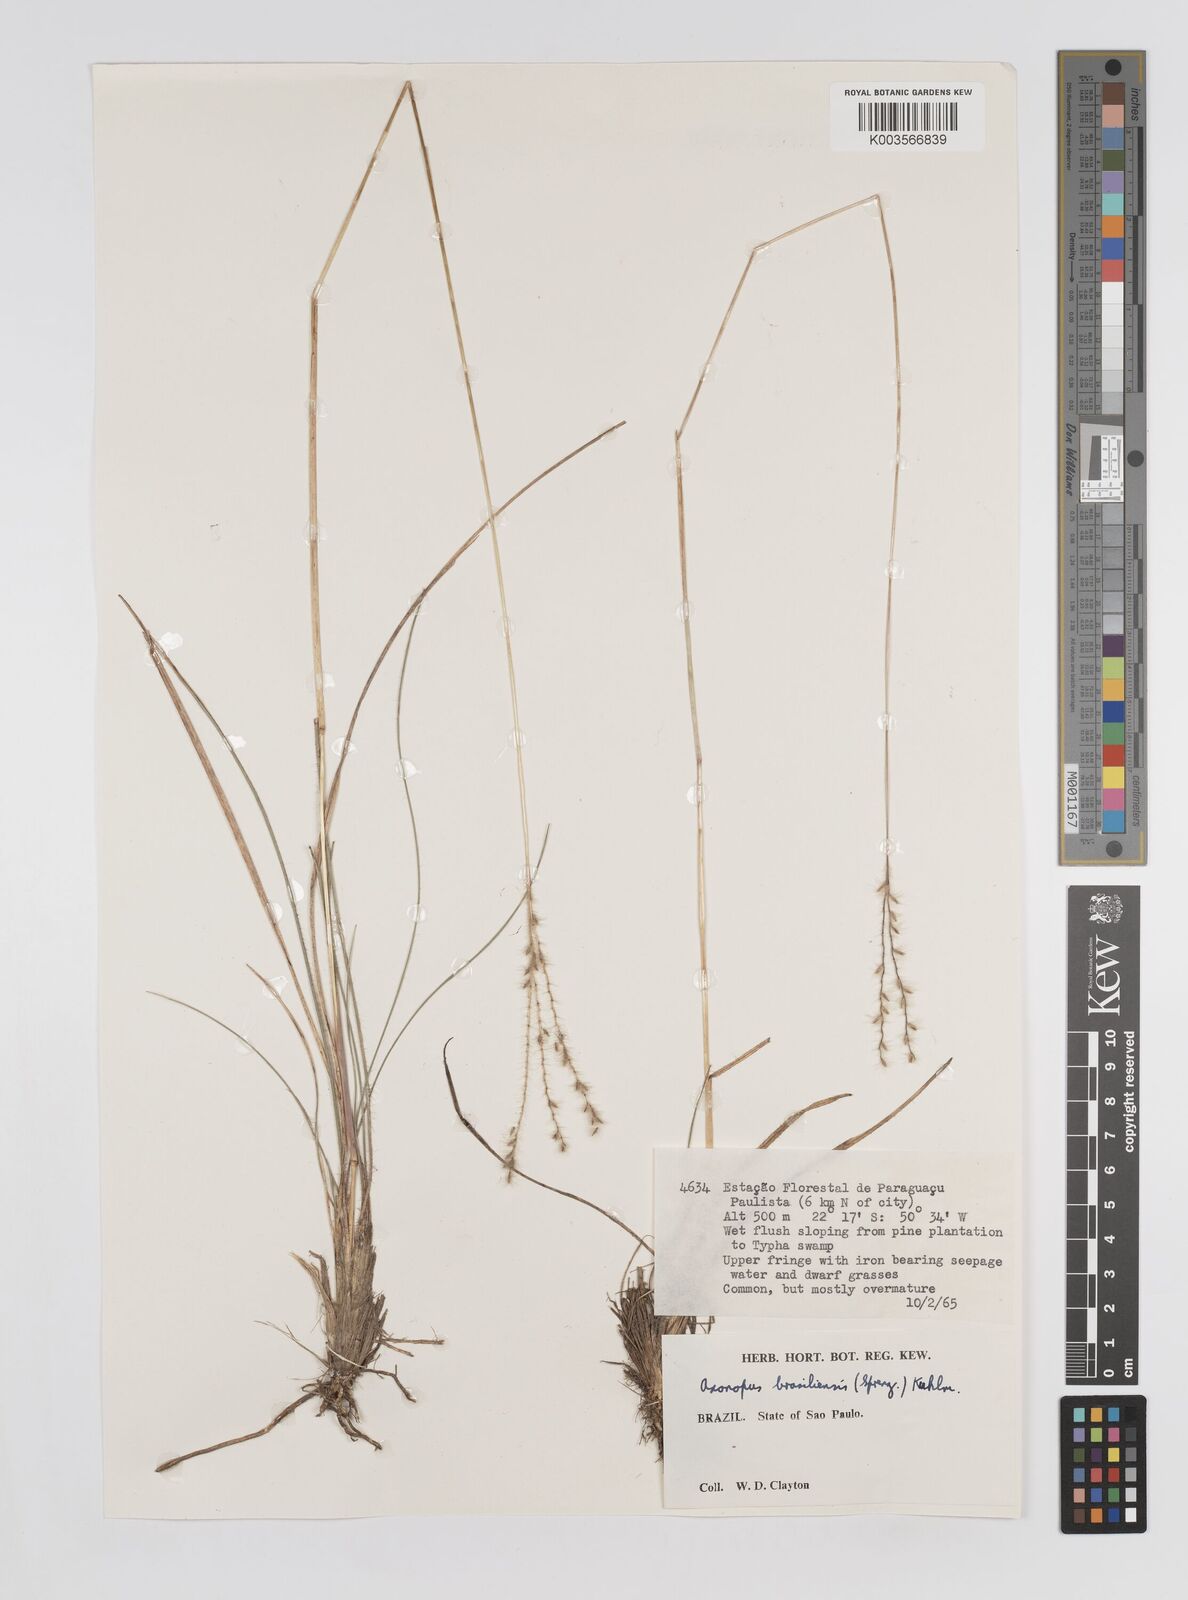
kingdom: Plantae
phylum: Tracheophyta
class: Liliopsida
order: Poales
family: Poaceae
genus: Axonopus
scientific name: Axonopus brasiliensis
